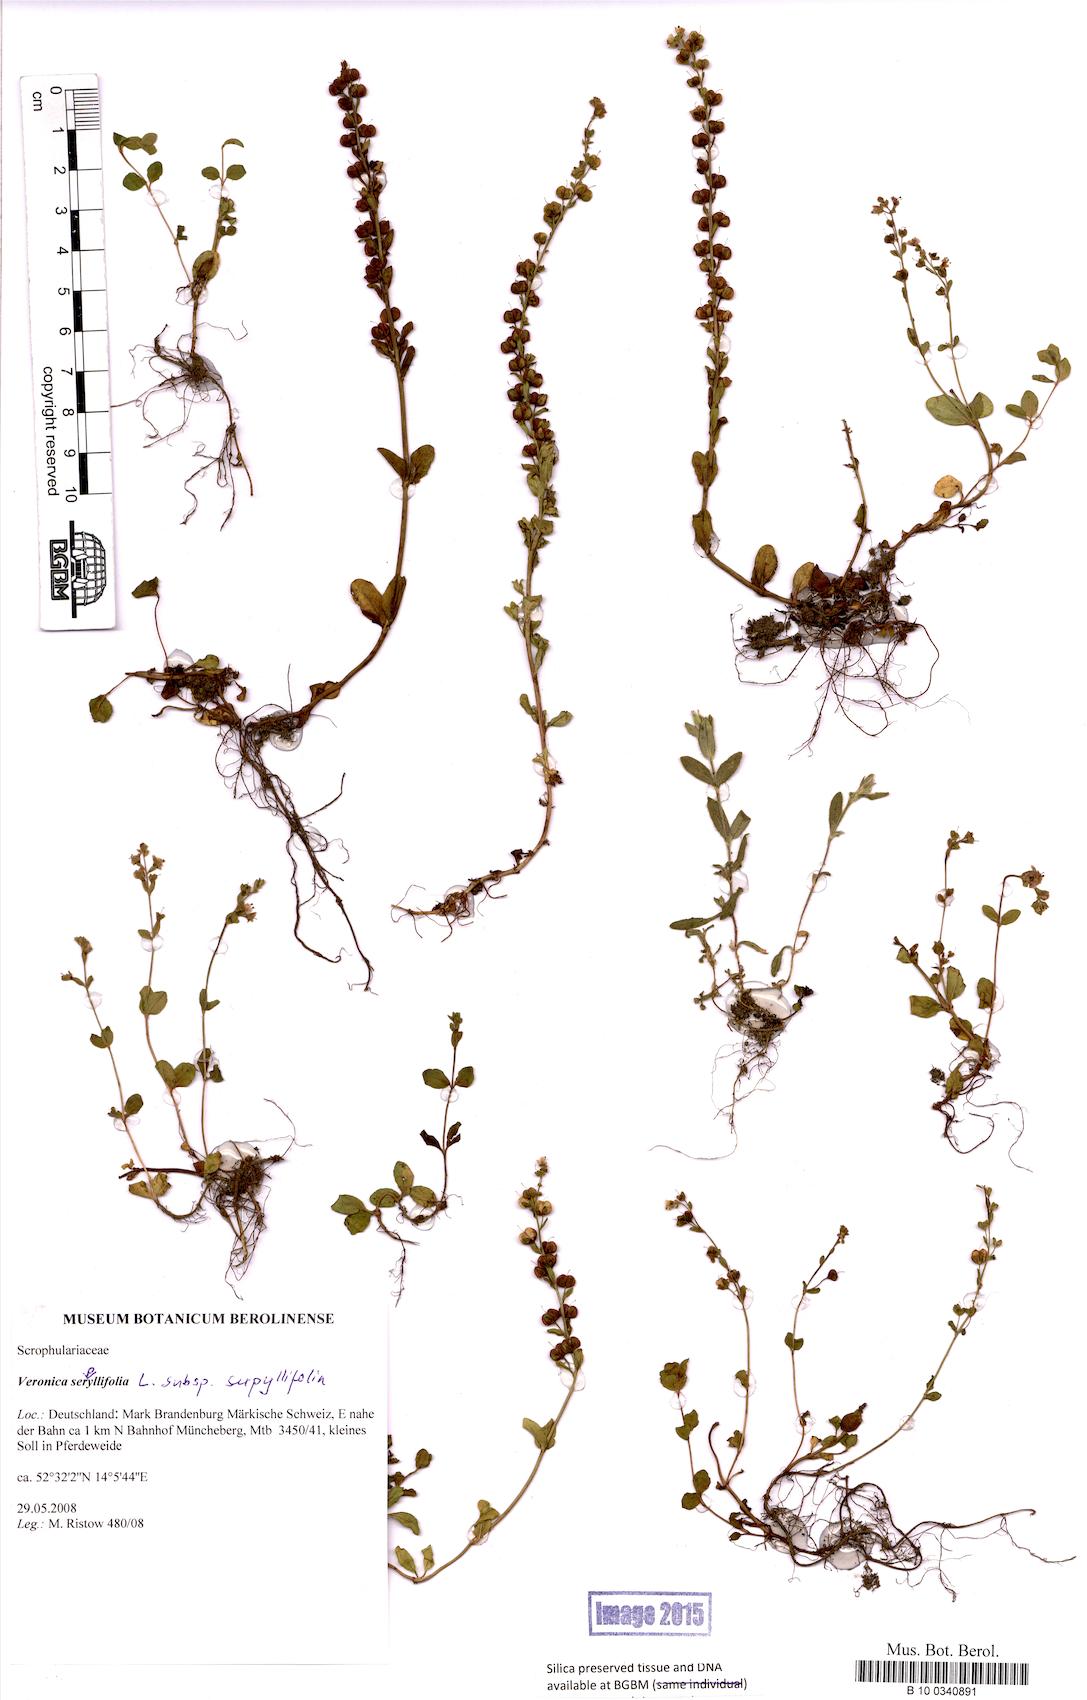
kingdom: Plantae
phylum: Tracheophyta
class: Magnoliopsida
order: Lamiales
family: Plantaginaceae
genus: Veronica
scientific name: Veronica serpyllifolia
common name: Thyme-leaved speedwell
